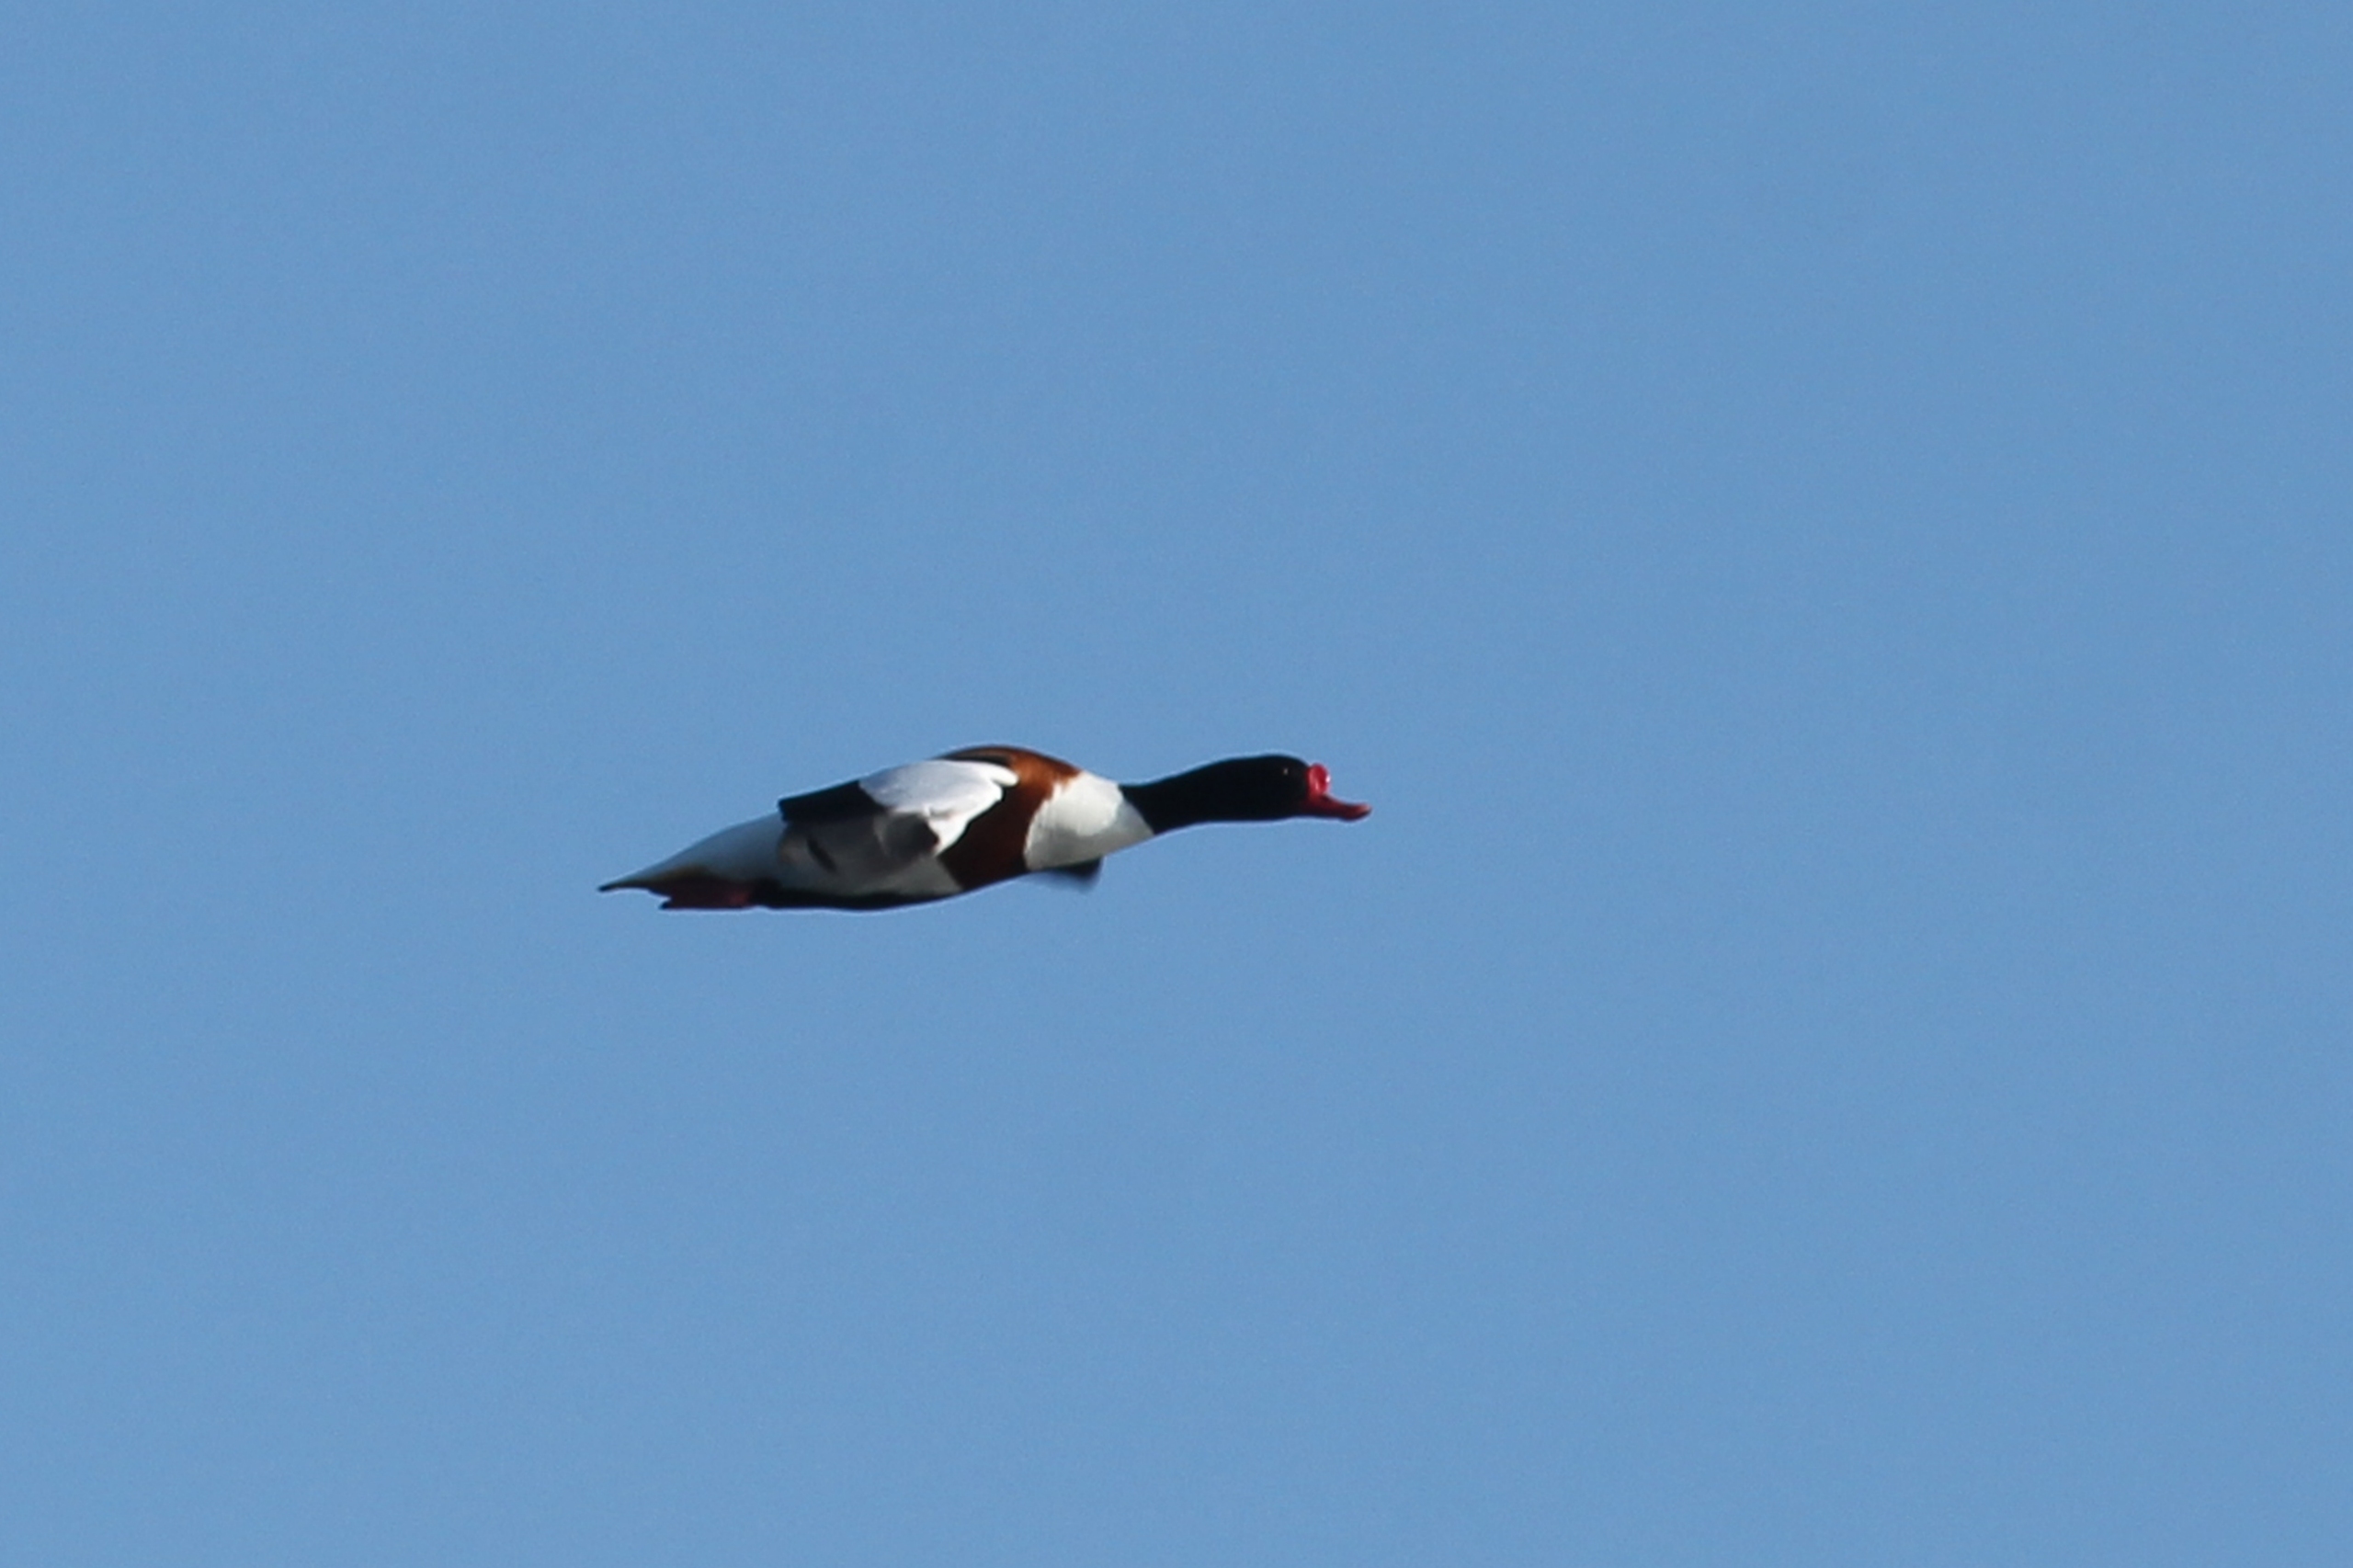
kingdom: Animalia
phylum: Chordata
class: Aves
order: Anseriformes
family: Anatidae
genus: Tadorna
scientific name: Tadorna tadorna
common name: Gravand
